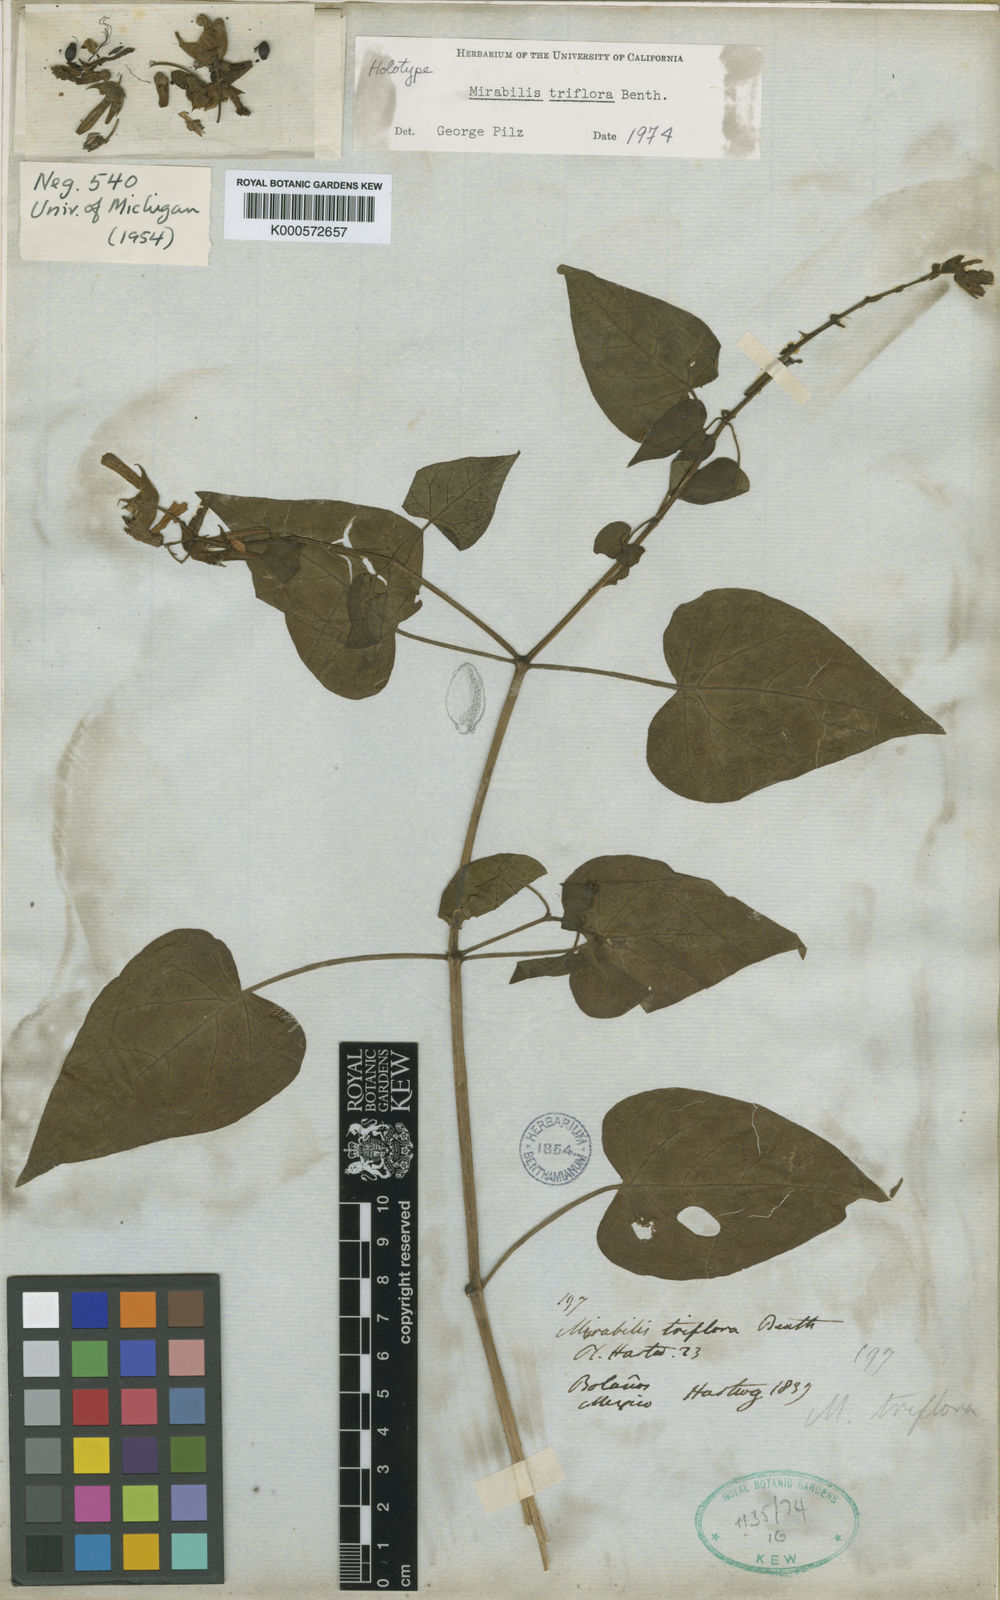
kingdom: Plantae
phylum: Tracheophyta
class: Magnoliopsida
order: Caryophyllales
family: Nyctaginaceae
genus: Mirabilis
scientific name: Mirabilis triflora
